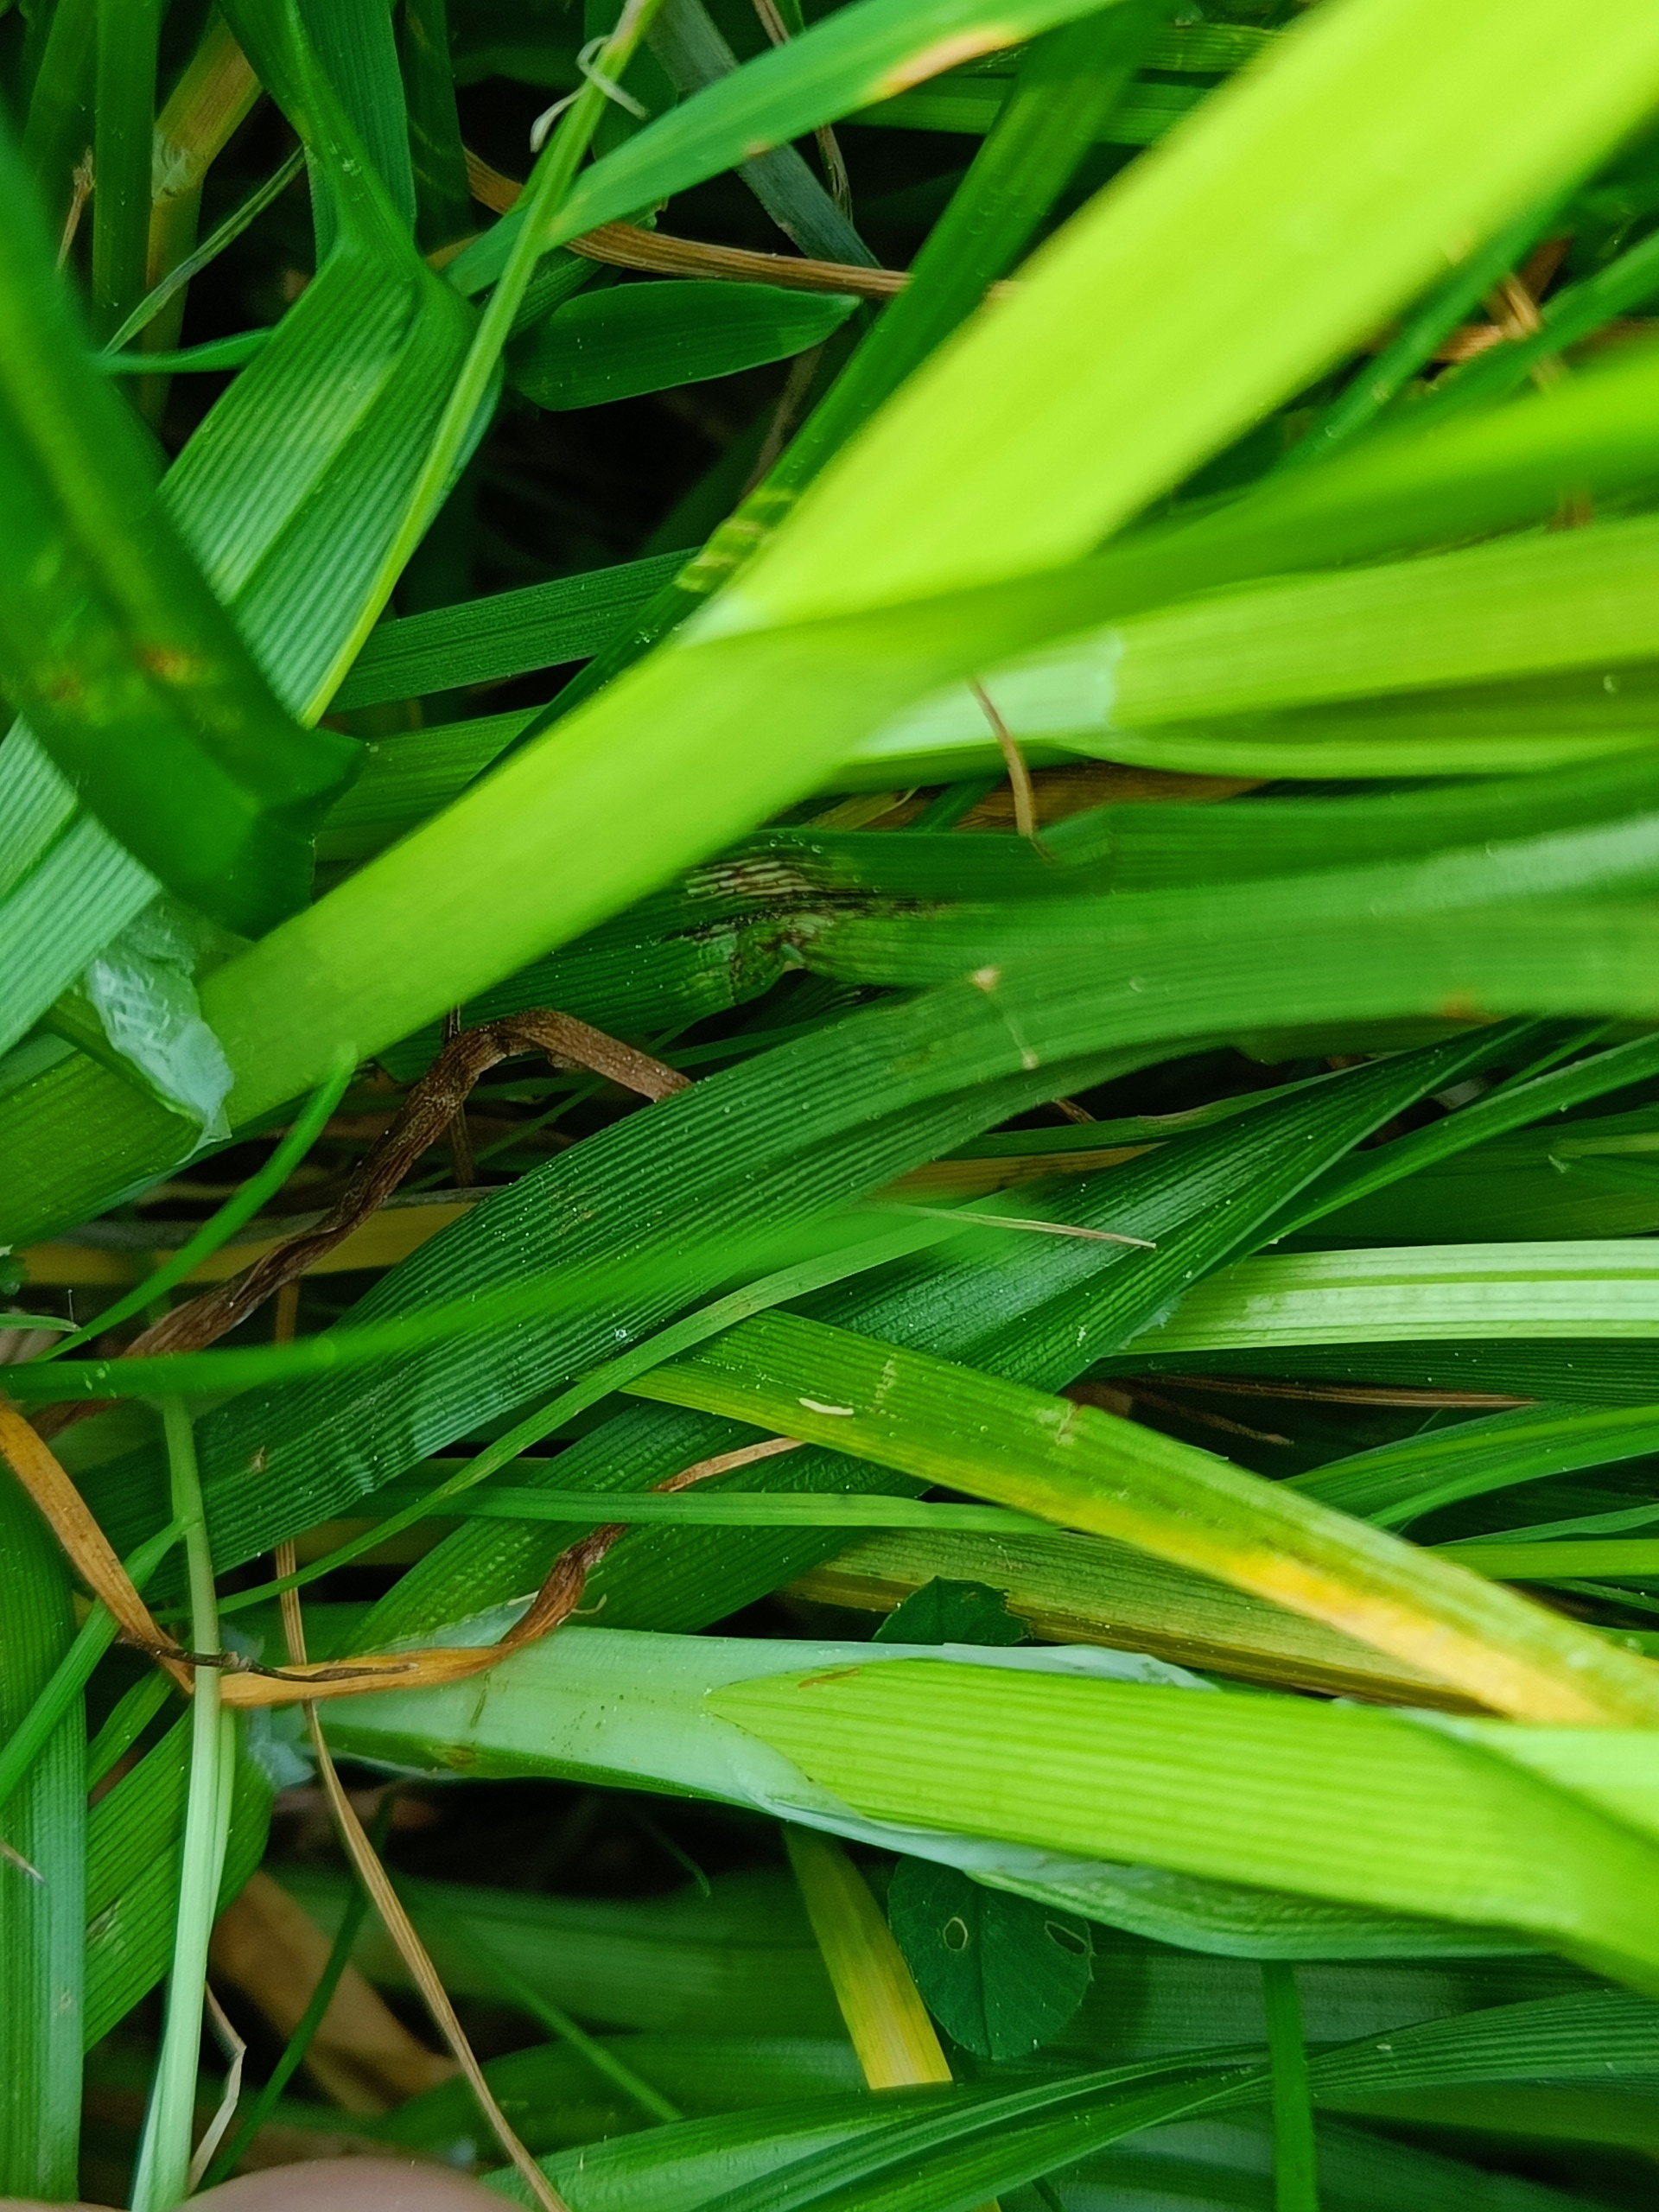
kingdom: Plantae
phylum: Tracheophyta
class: Liliopsida
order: Poales
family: Cyperaceae
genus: Carex
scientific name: Carex vulpina
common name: Ræve-star
